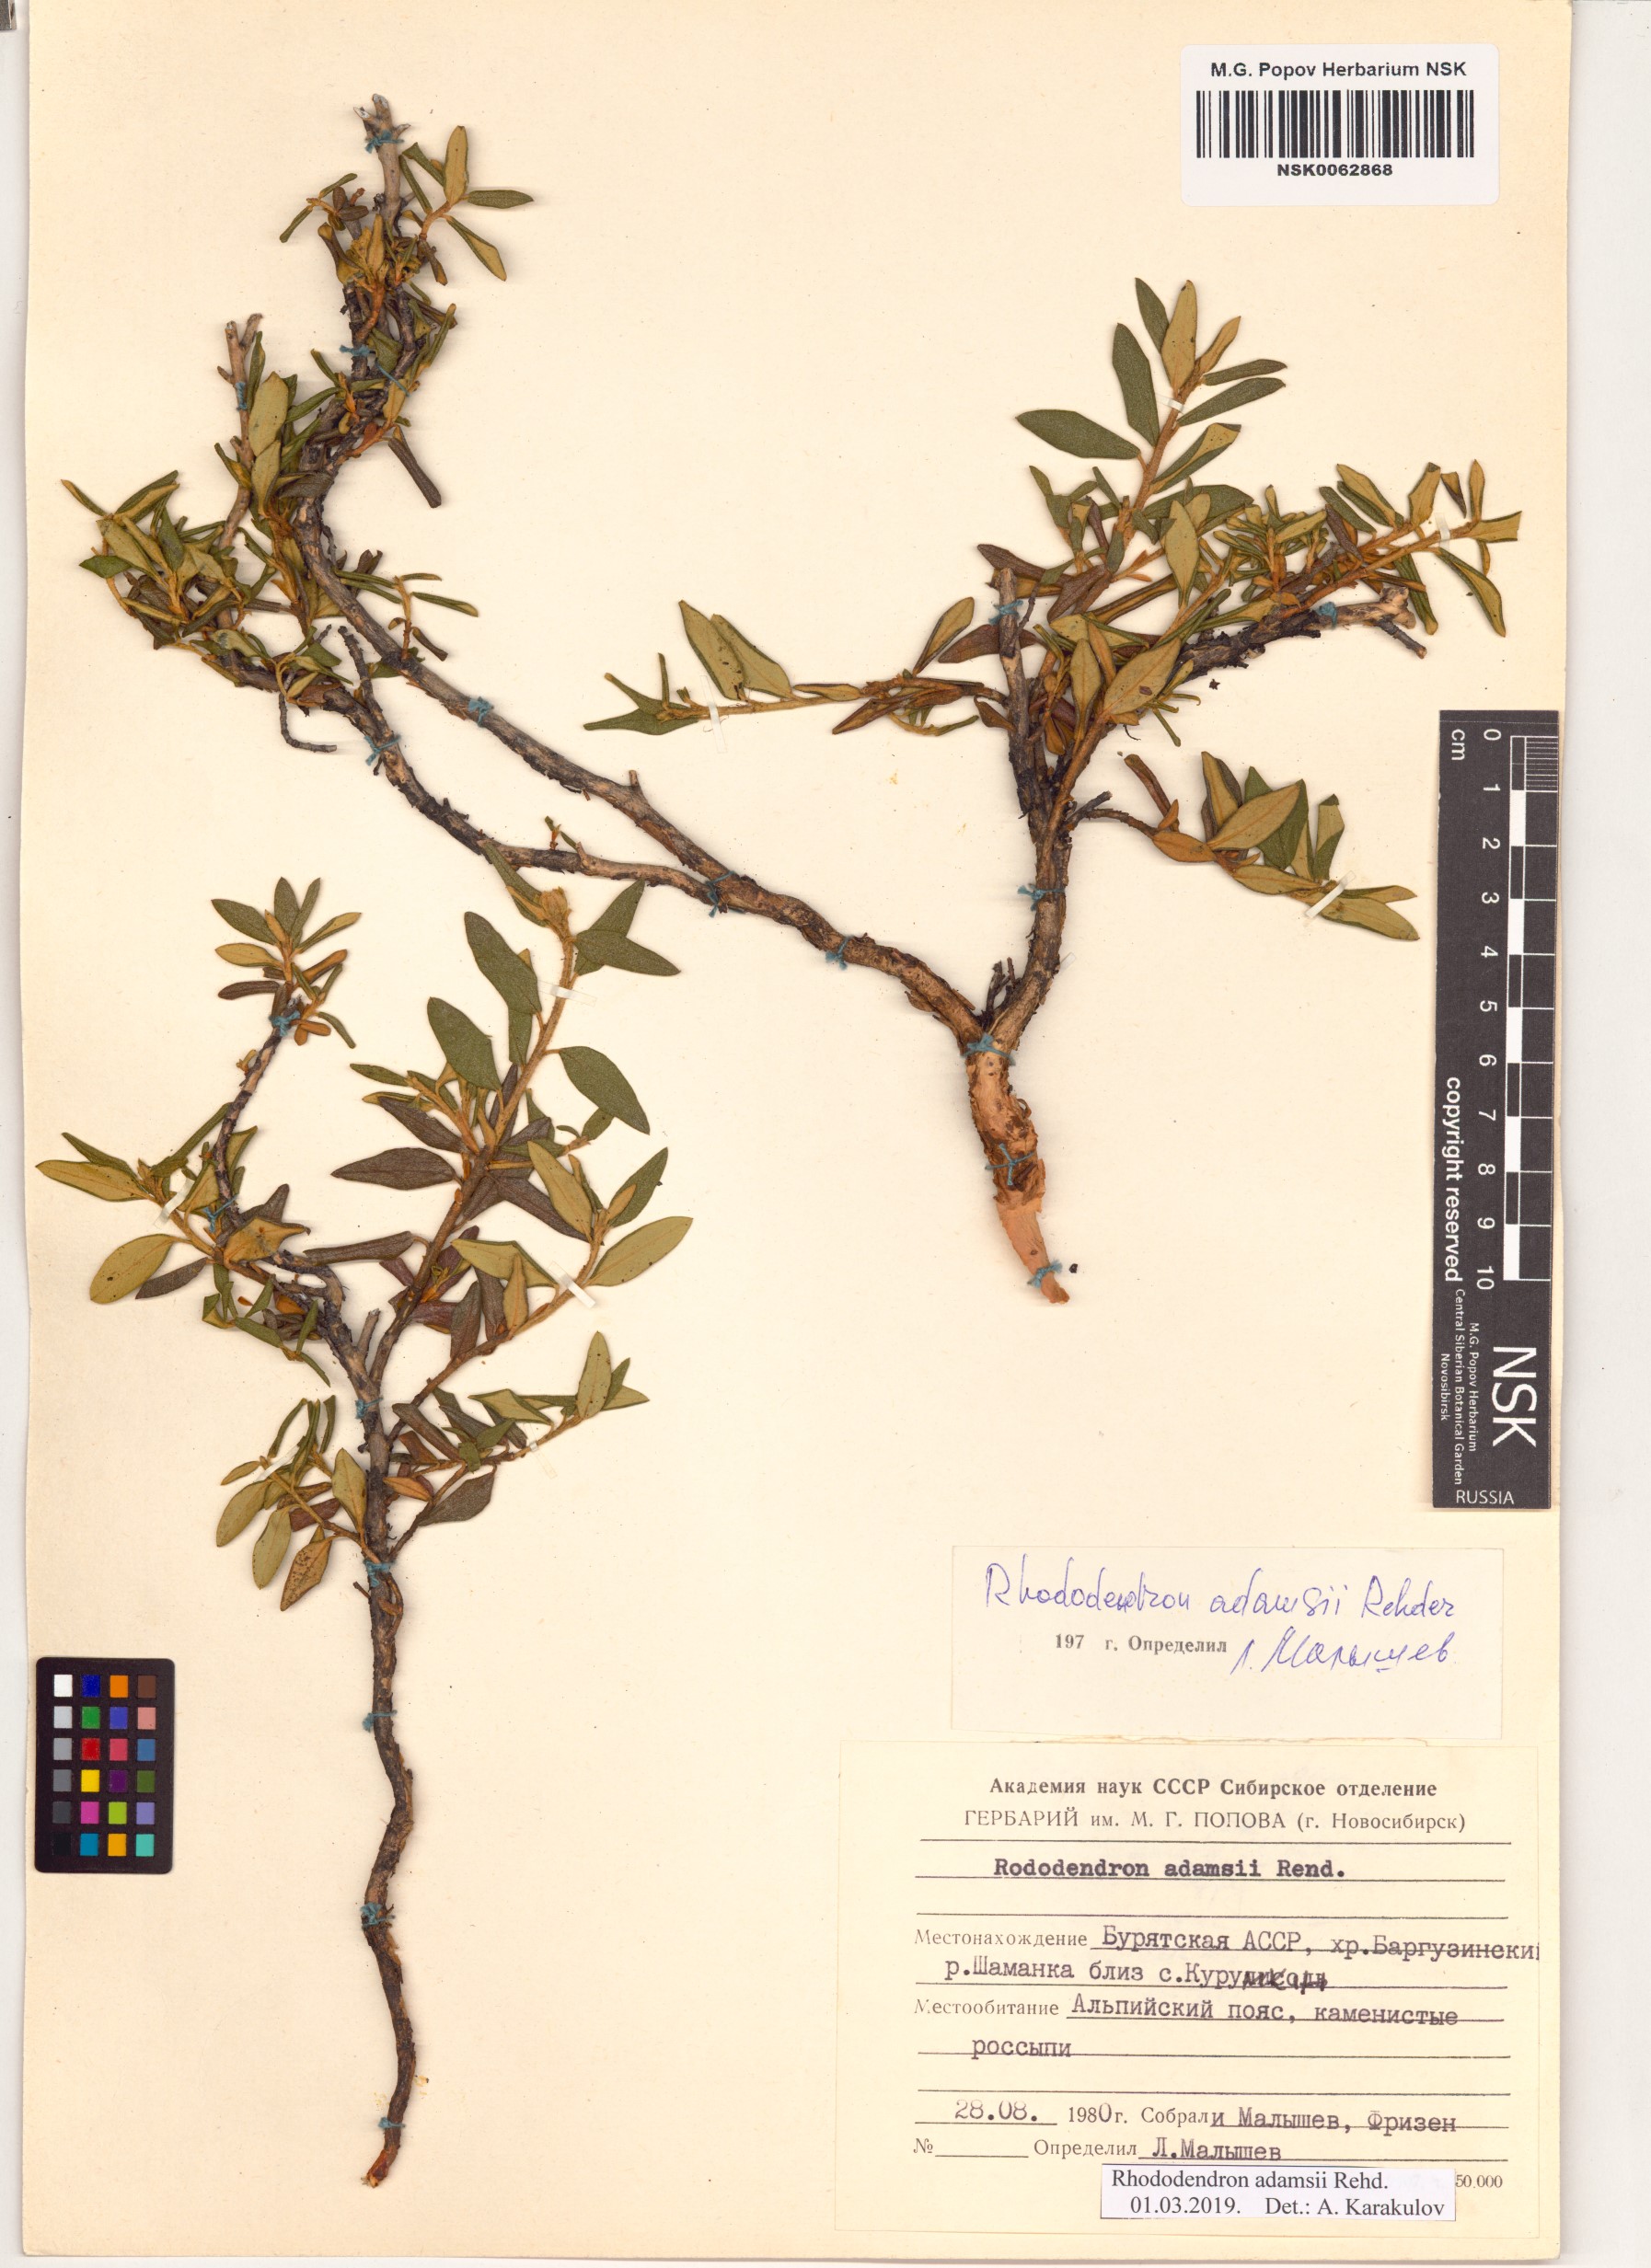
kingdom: Plantae
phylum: Tracheophyta
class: Magnoliopsida
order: Ericales
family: Ericaceae
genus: Rhododendron
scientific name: Rhododendron adamsii
